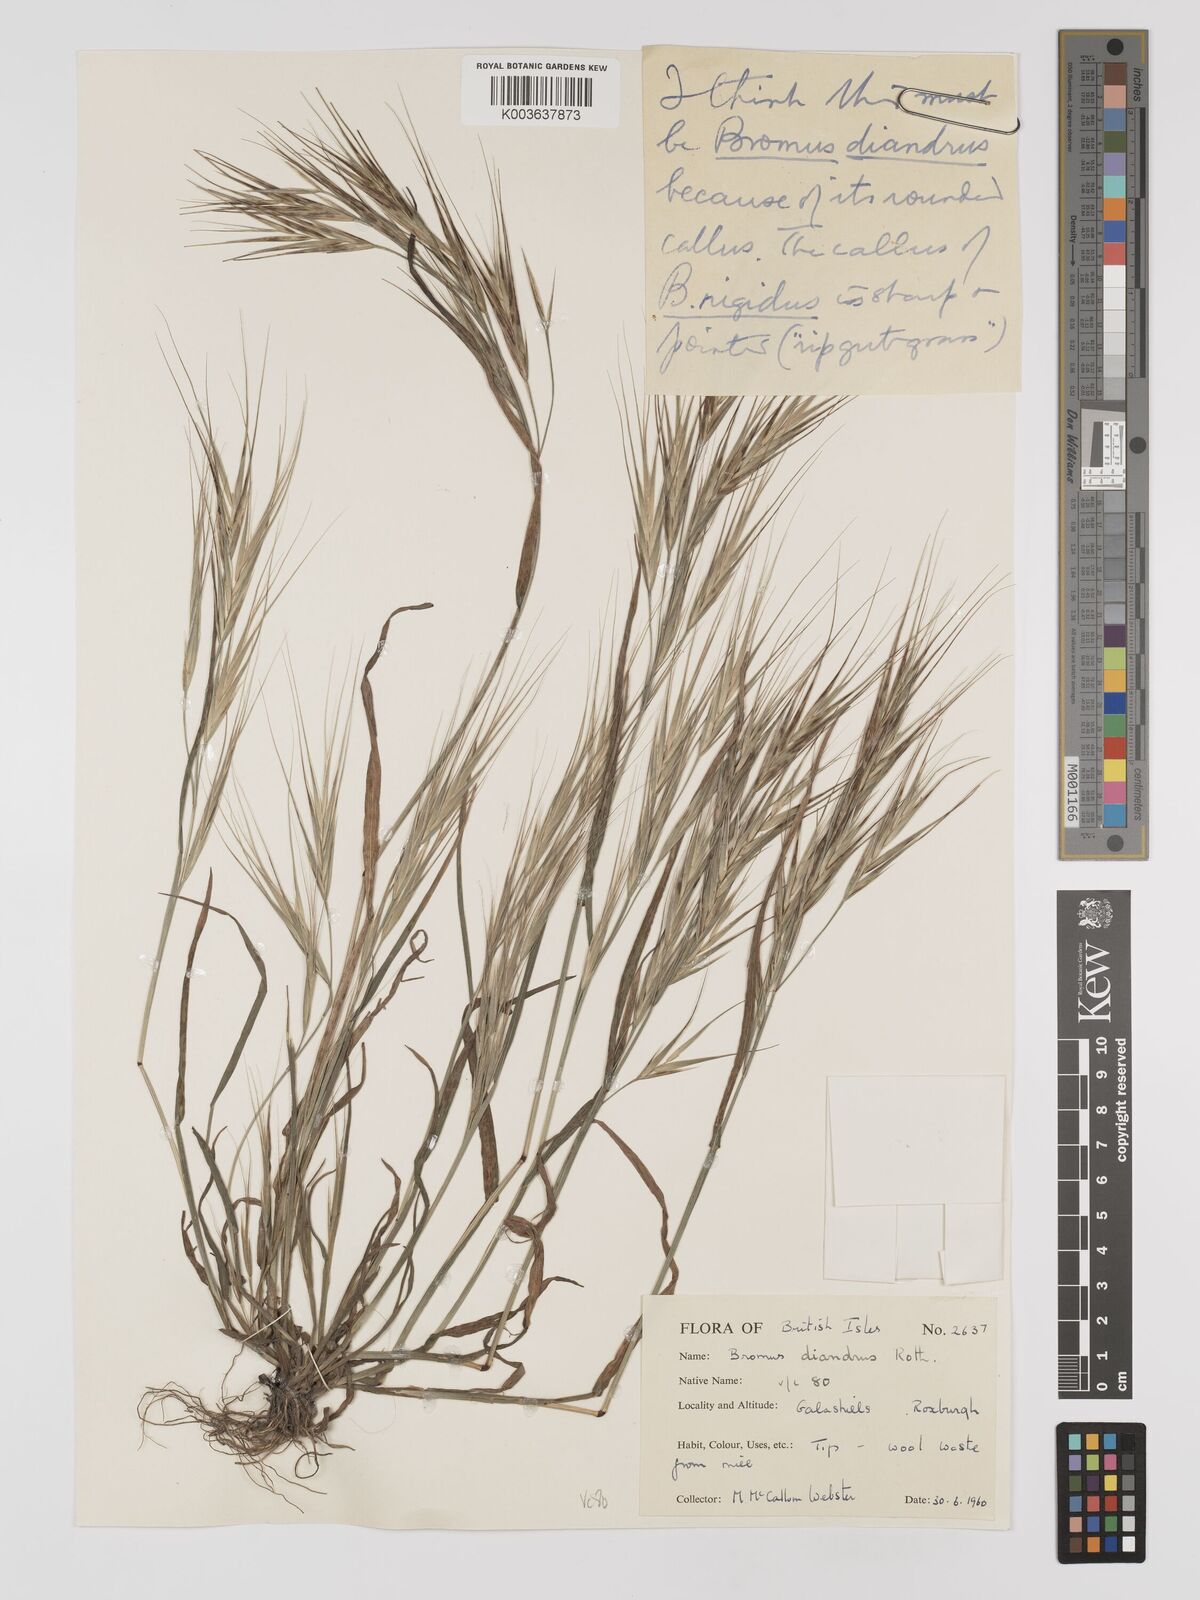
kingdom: Plantae
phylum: Tracheophyta
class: Liliopsida
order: Poales
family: Poaceae
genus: Bromus
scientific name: Bromus
